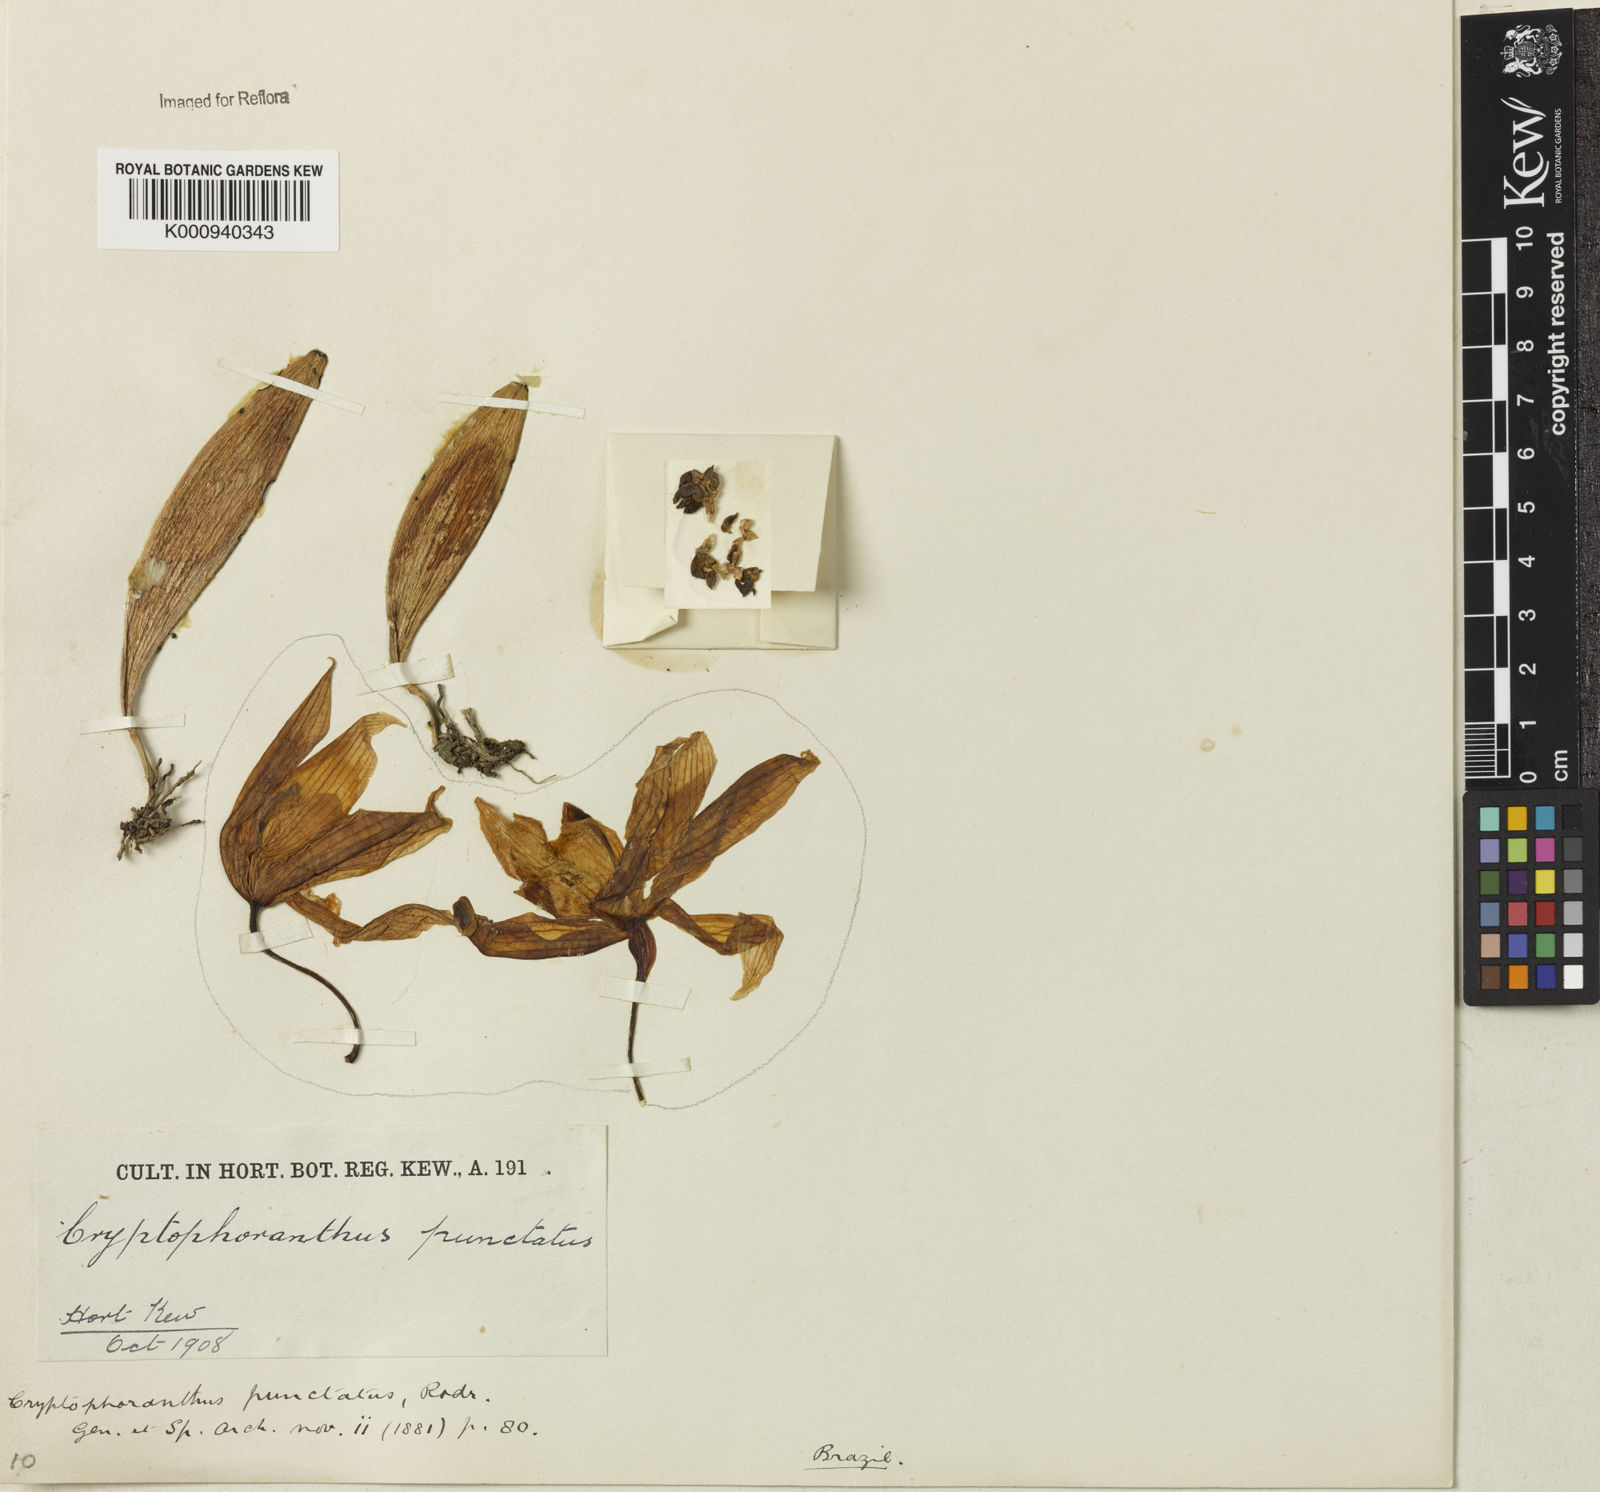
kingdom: Plantae
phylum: Tracheophyta
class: Liliopsida
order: Asparagales
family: Orchidaceae
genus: Acianthera
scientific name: Acianthera punctatiflora
